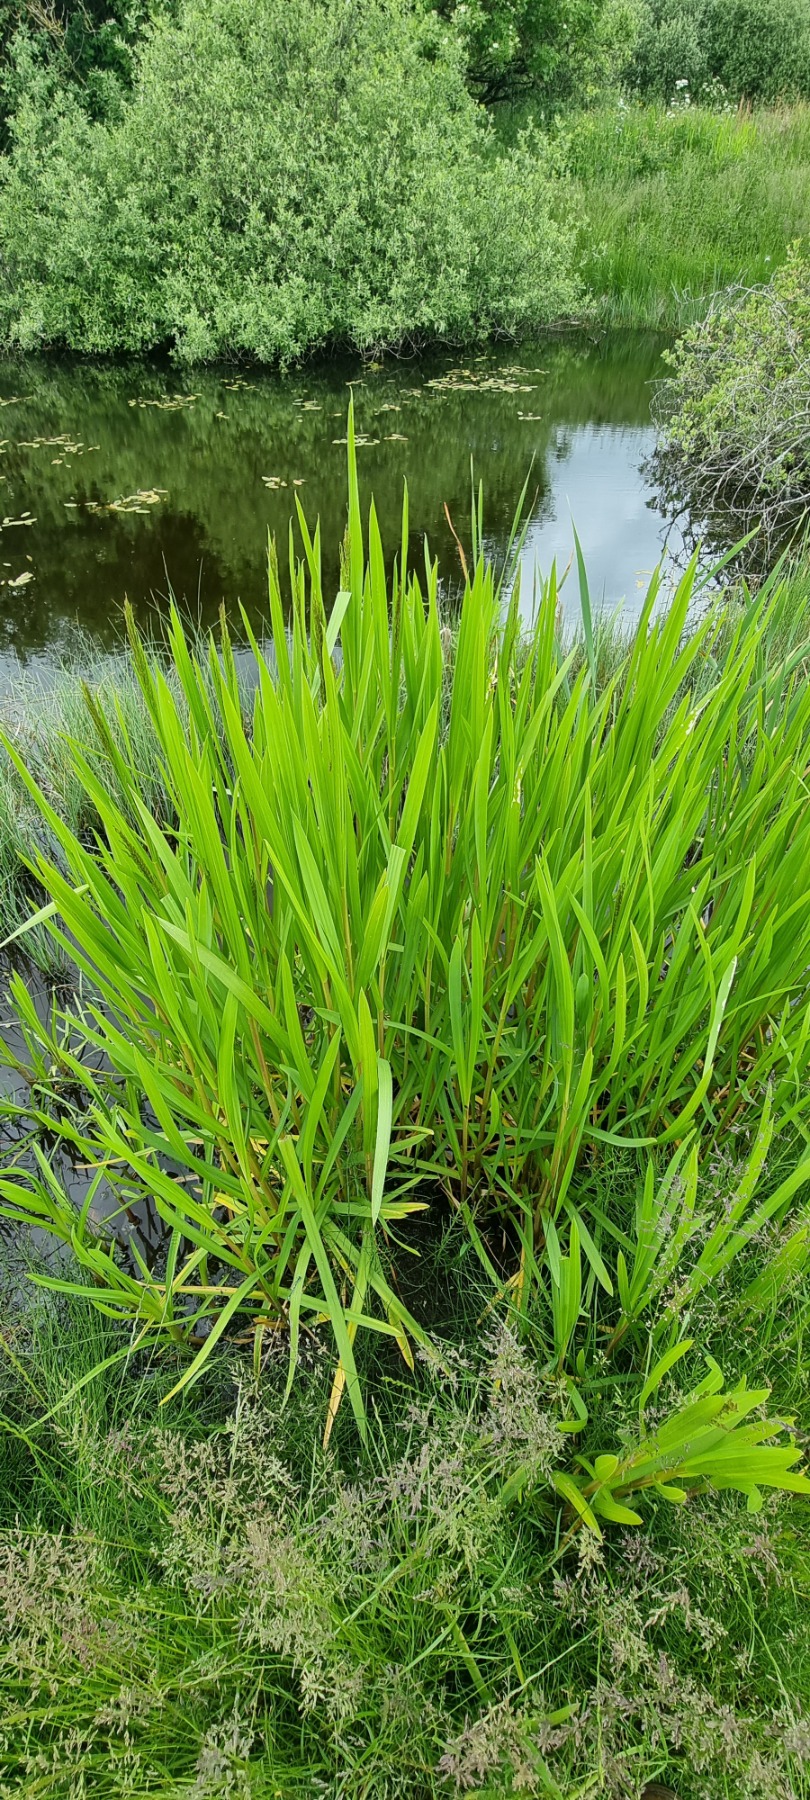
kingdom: Plantae
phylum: Tracheophyta
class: Liliopsida
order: Poales
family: Poaceae
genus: Glyceria
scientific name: Glyceria maxima
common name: Høj sødgræs
